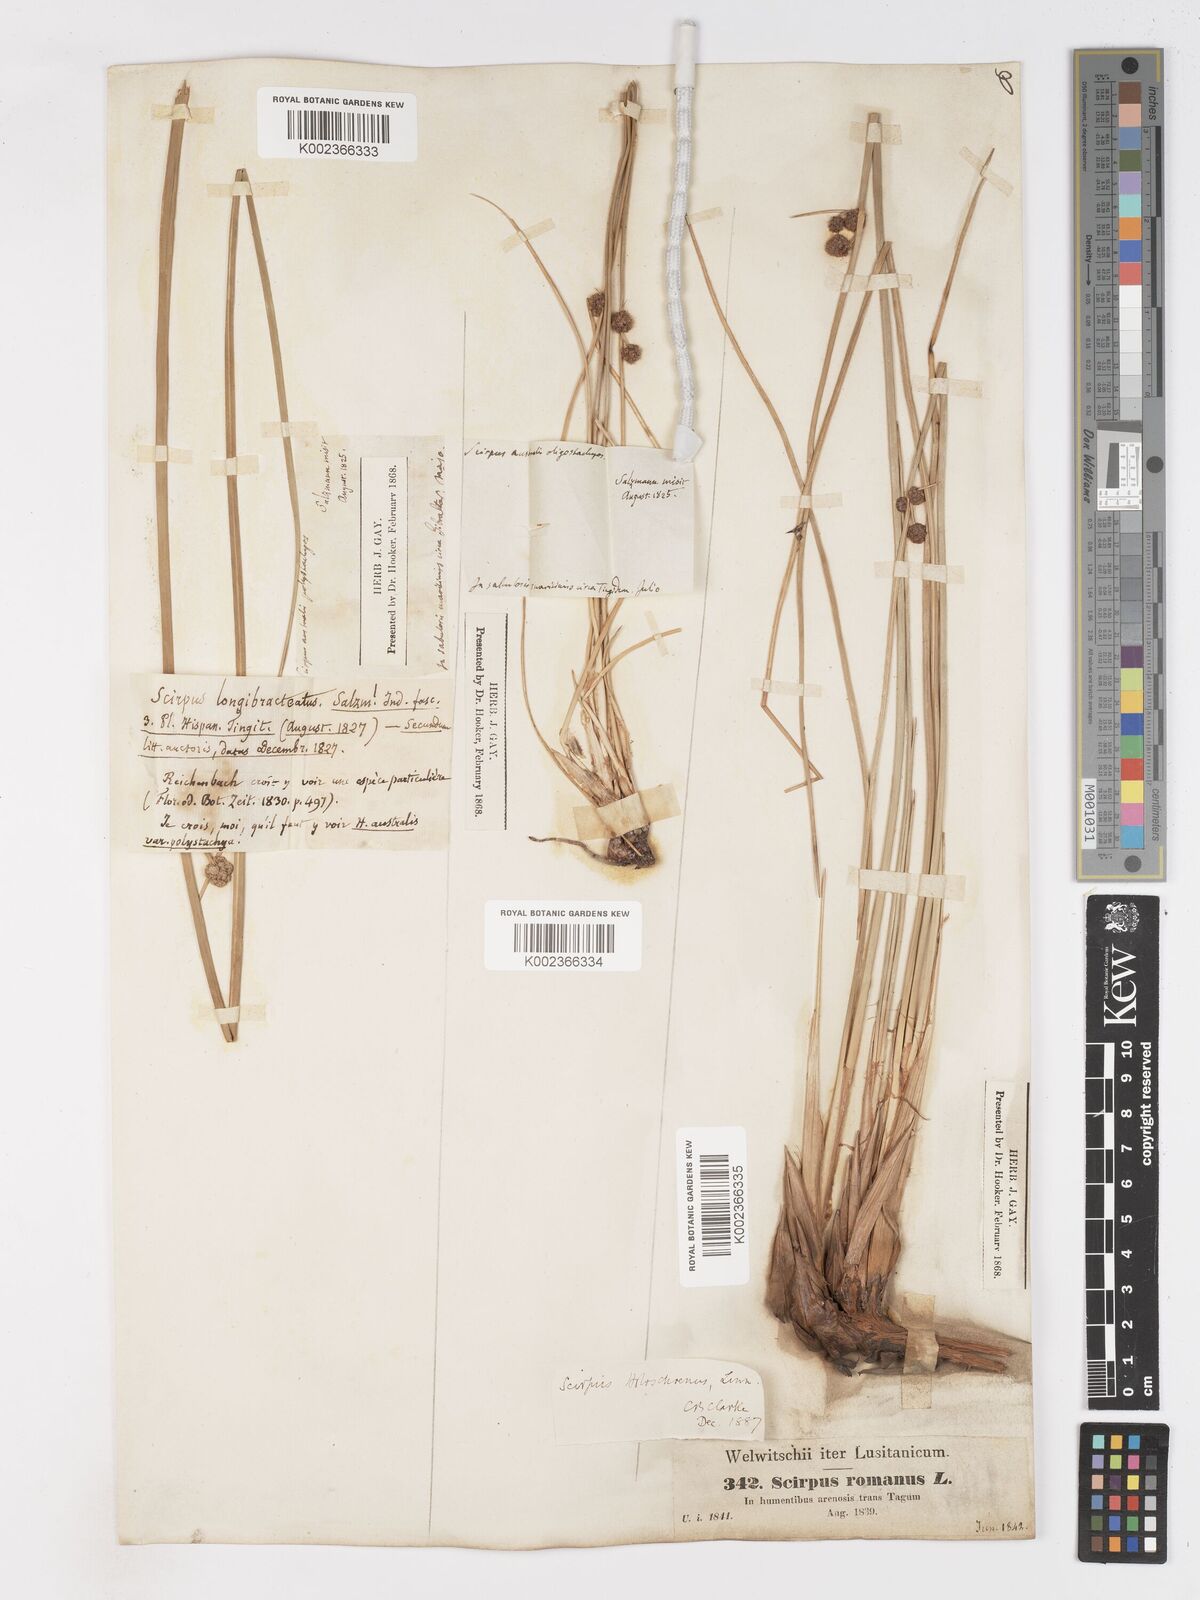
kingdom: Plantae
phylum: Tracheophyta
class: Liliopsida
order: Poales
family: Cyperaceae
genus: Scirpoides
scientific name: Scirpoides holoschoenus
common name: Round-headed club-rush
